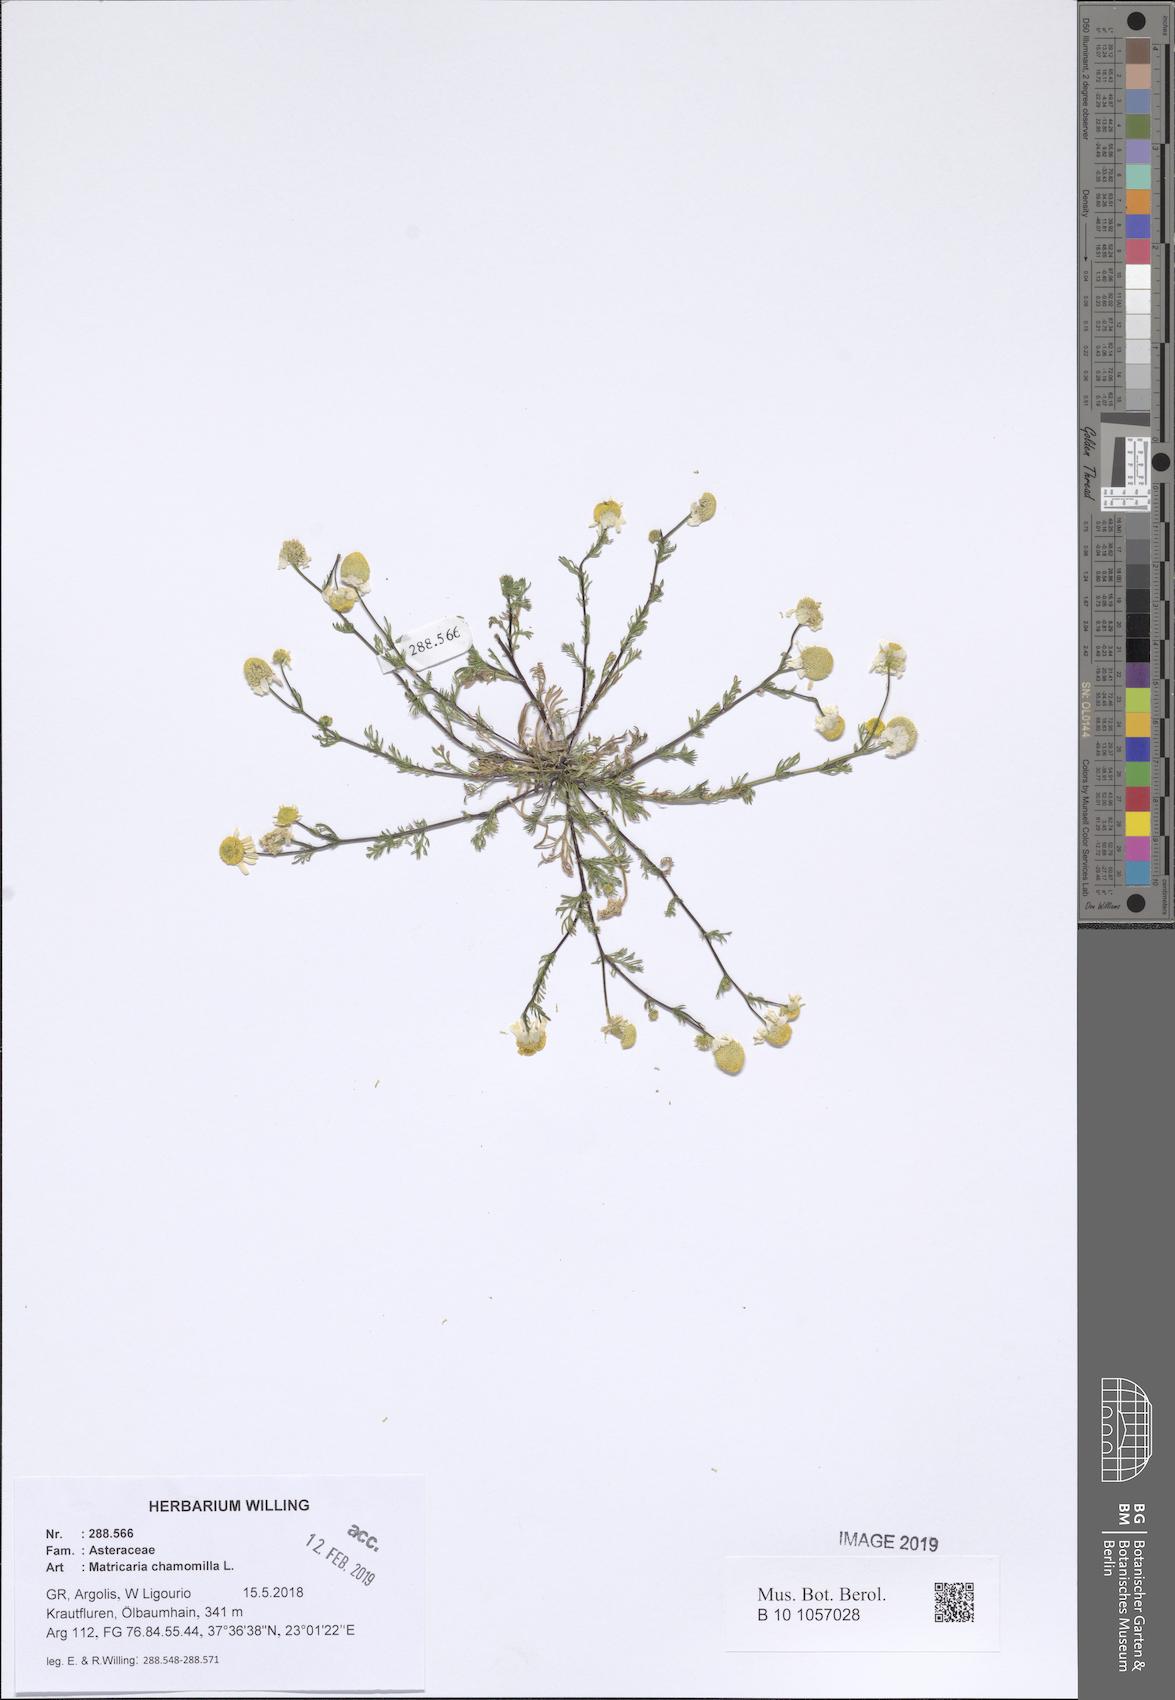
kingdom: Plantae
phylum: Tracheophyta
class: Magnoliopsida
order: Asterales
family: Asteraceae
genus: Matricaria
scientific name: Matricaria chamomilla
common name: Scented mayweed
